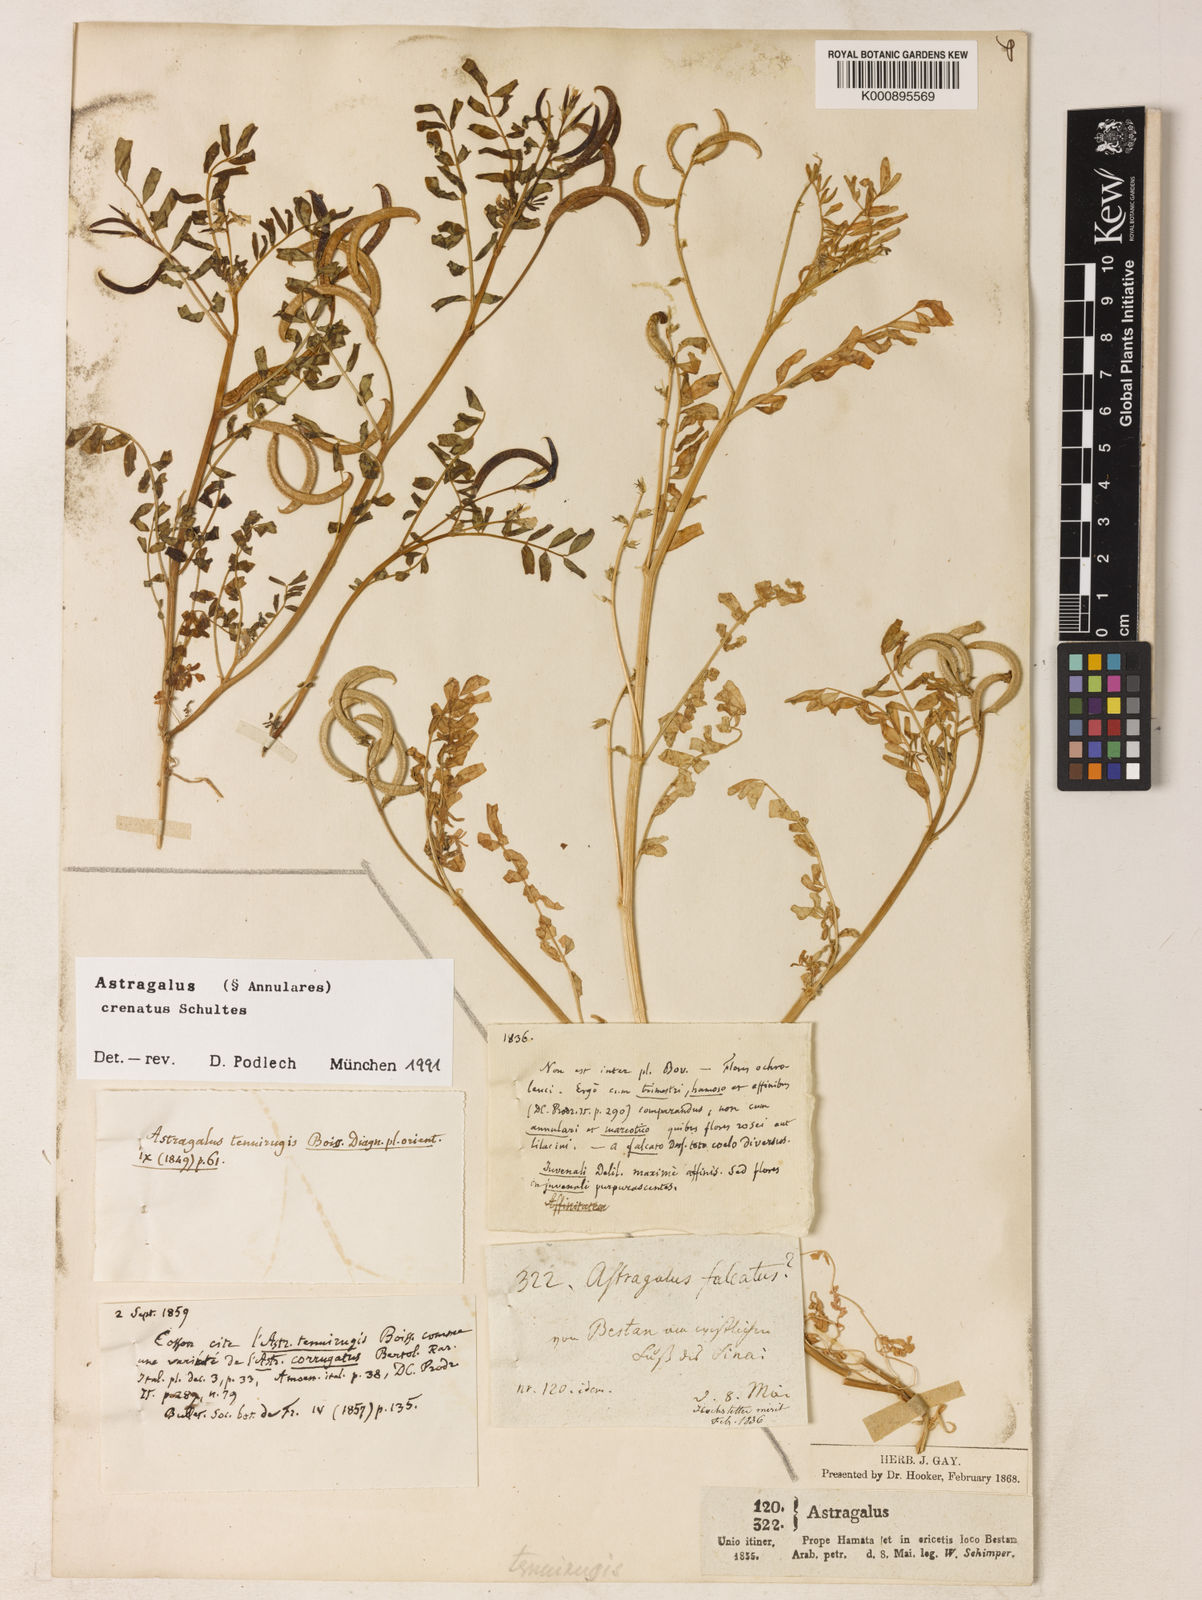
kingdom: Plantae
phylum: Tracheophyta
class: Magnoliopsida
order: Fabales
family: Fabaceae
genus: Astragalus
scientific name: Astragalus crenatus
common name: Milk vetch
